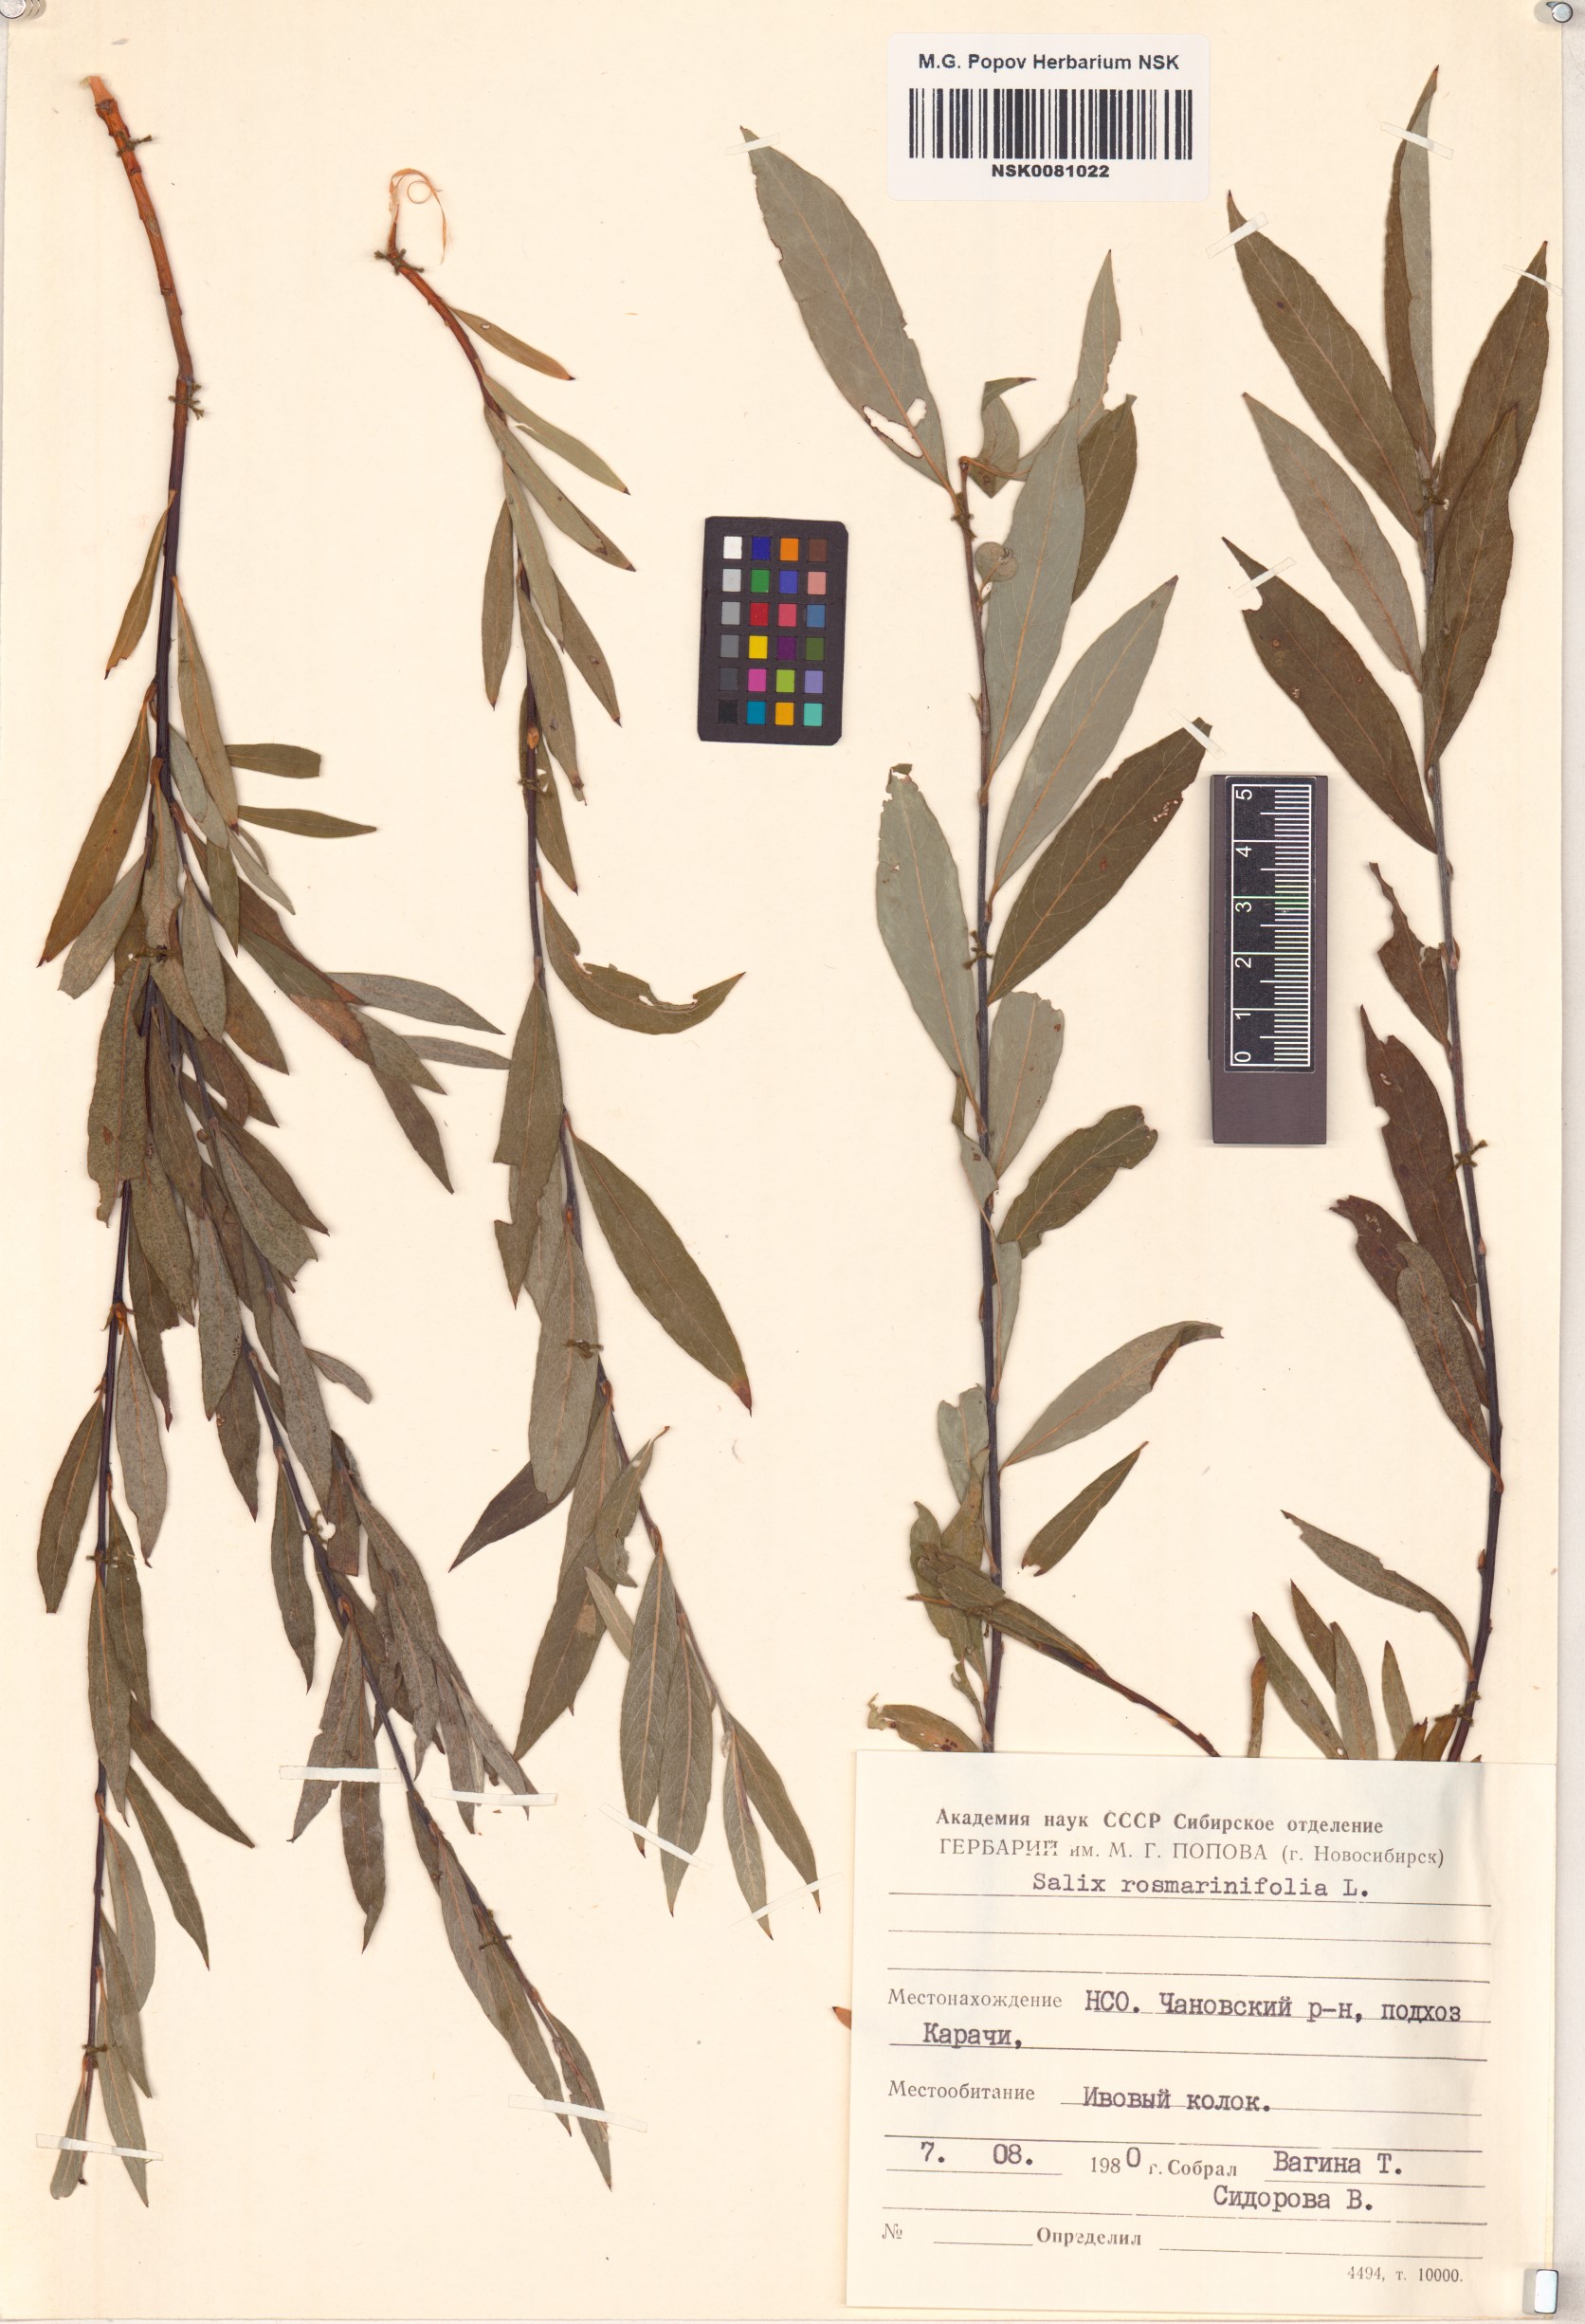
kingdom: Plantae
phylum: Tracheophyta
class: Magnoliopsida
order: Malpighiales
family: Salicaceae
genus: Salix
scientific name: Salix rosmarinifolia
